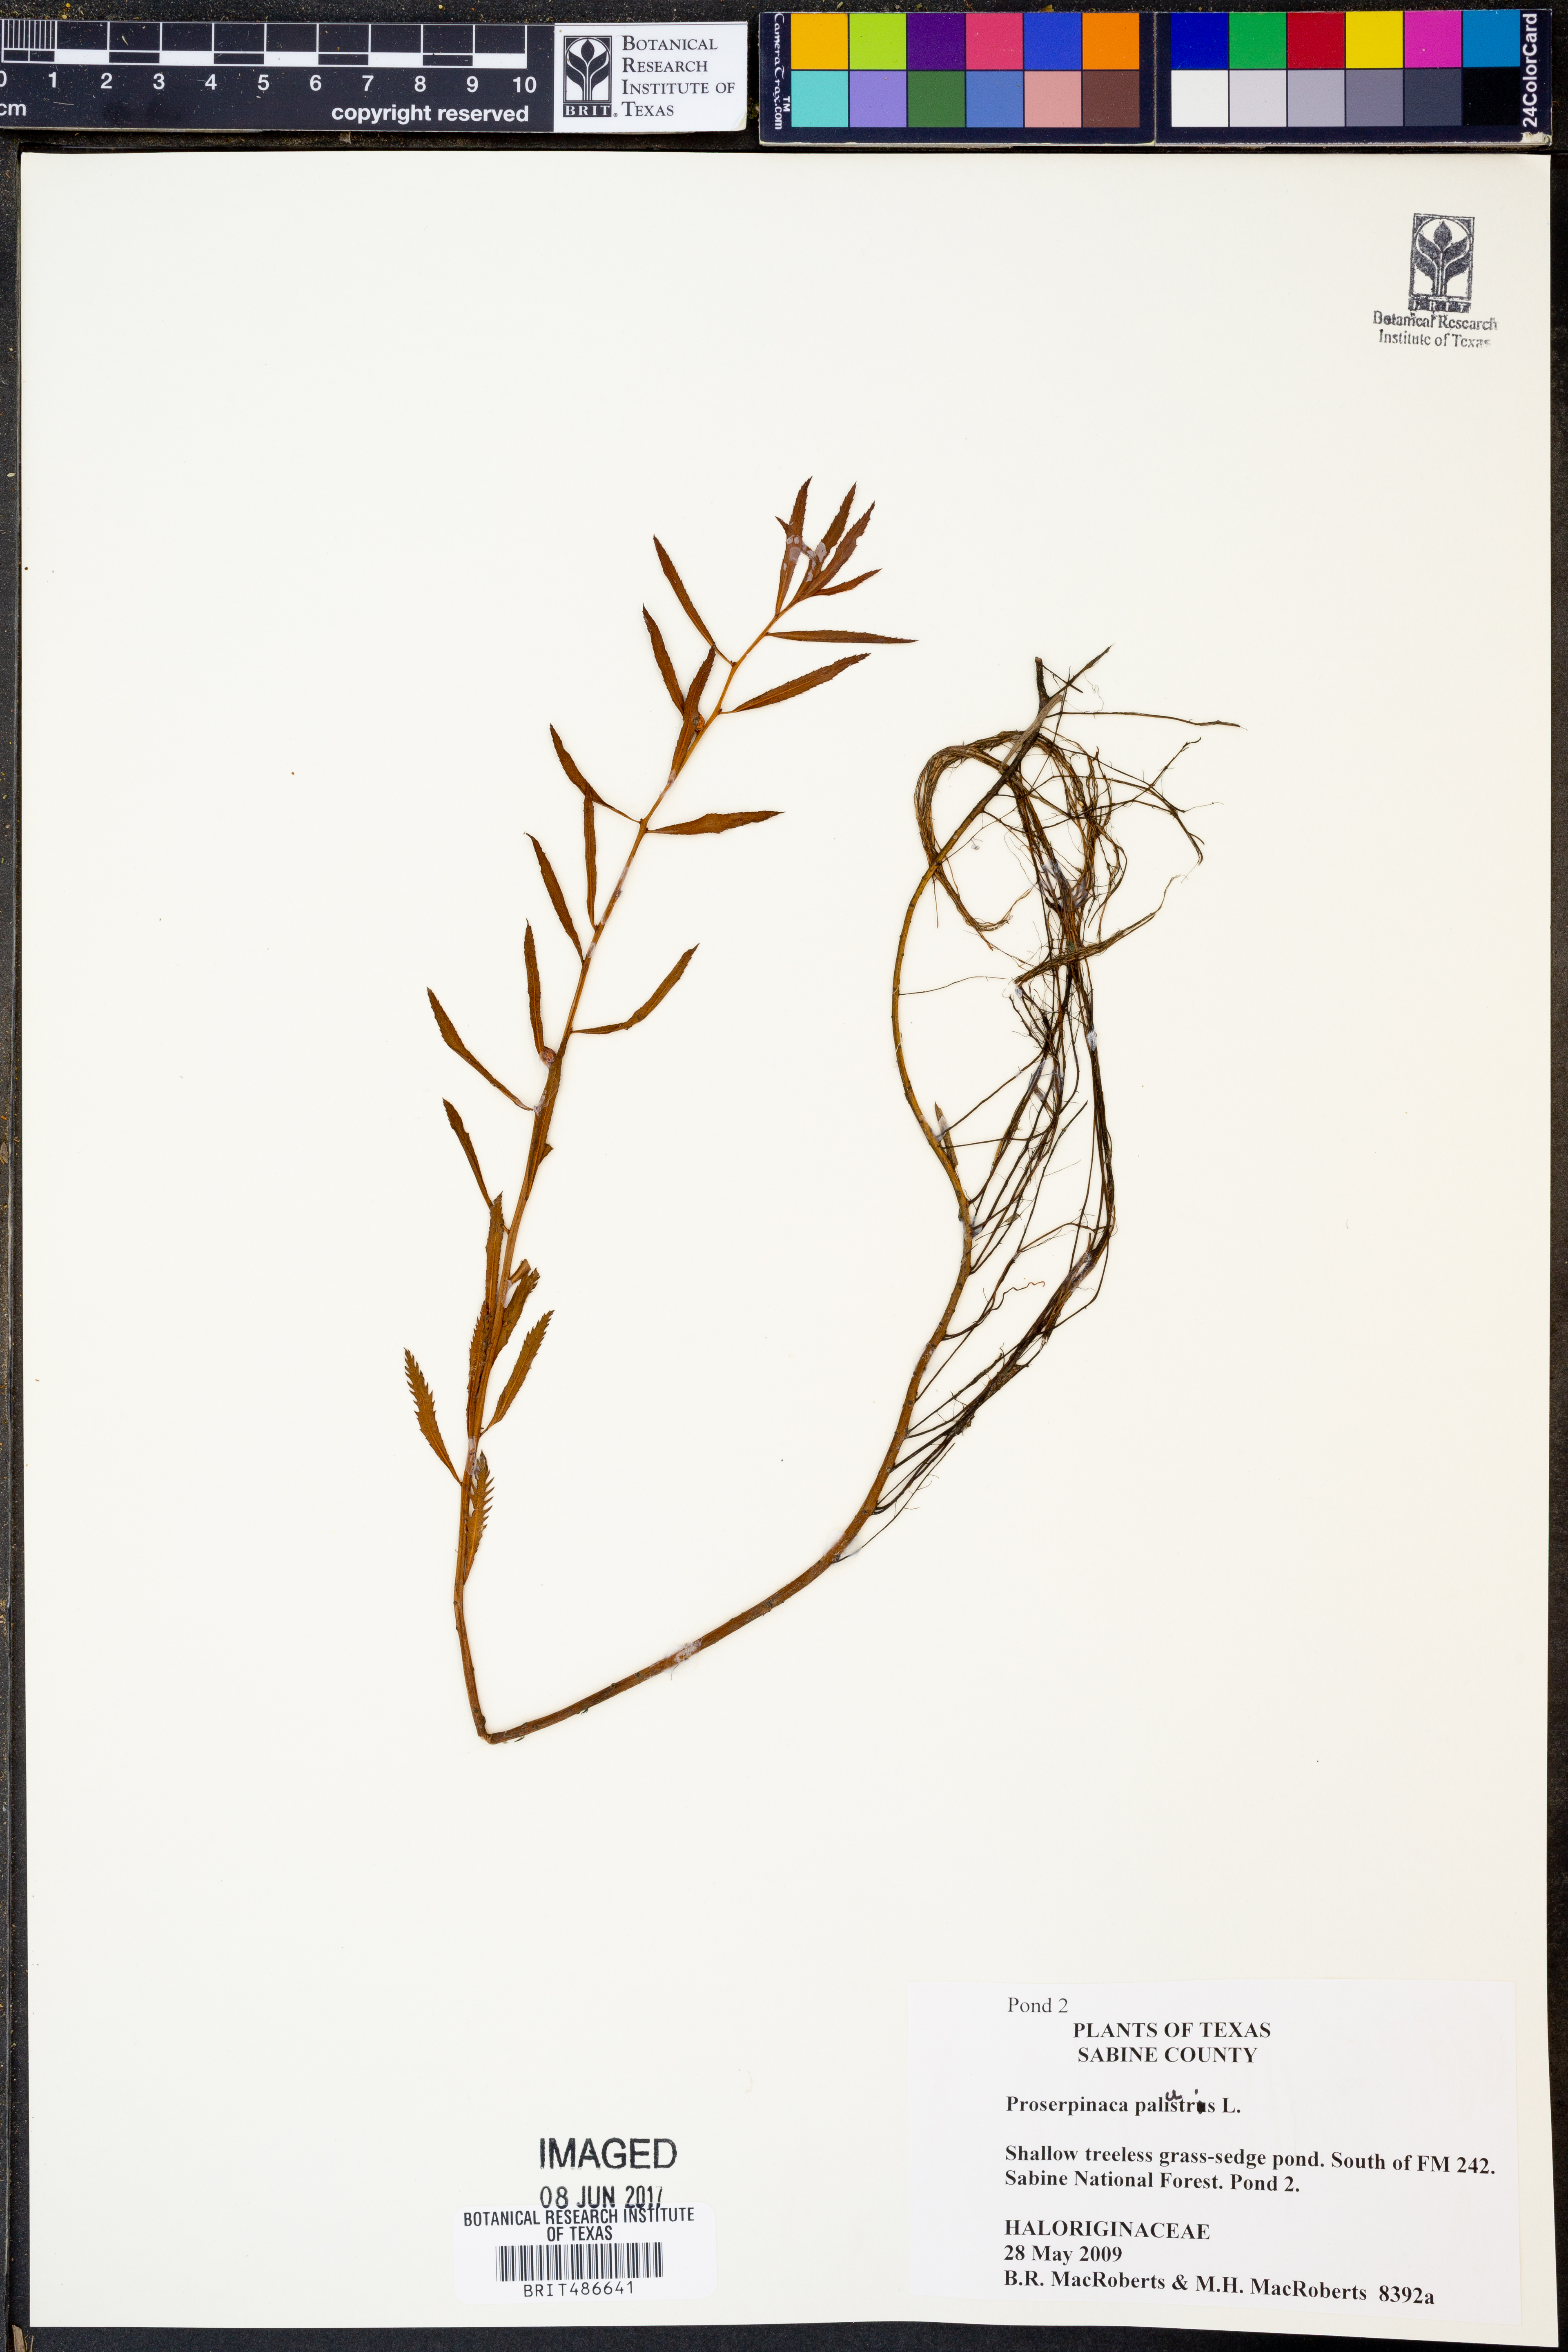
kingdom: Plantae
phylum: Tracheophyta
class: Magnoliopsida
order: Saxifragales
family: Haloragaceae
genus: Proserpinaca
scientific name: Proserpinaca palustris
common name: Marsh mermaidweed
